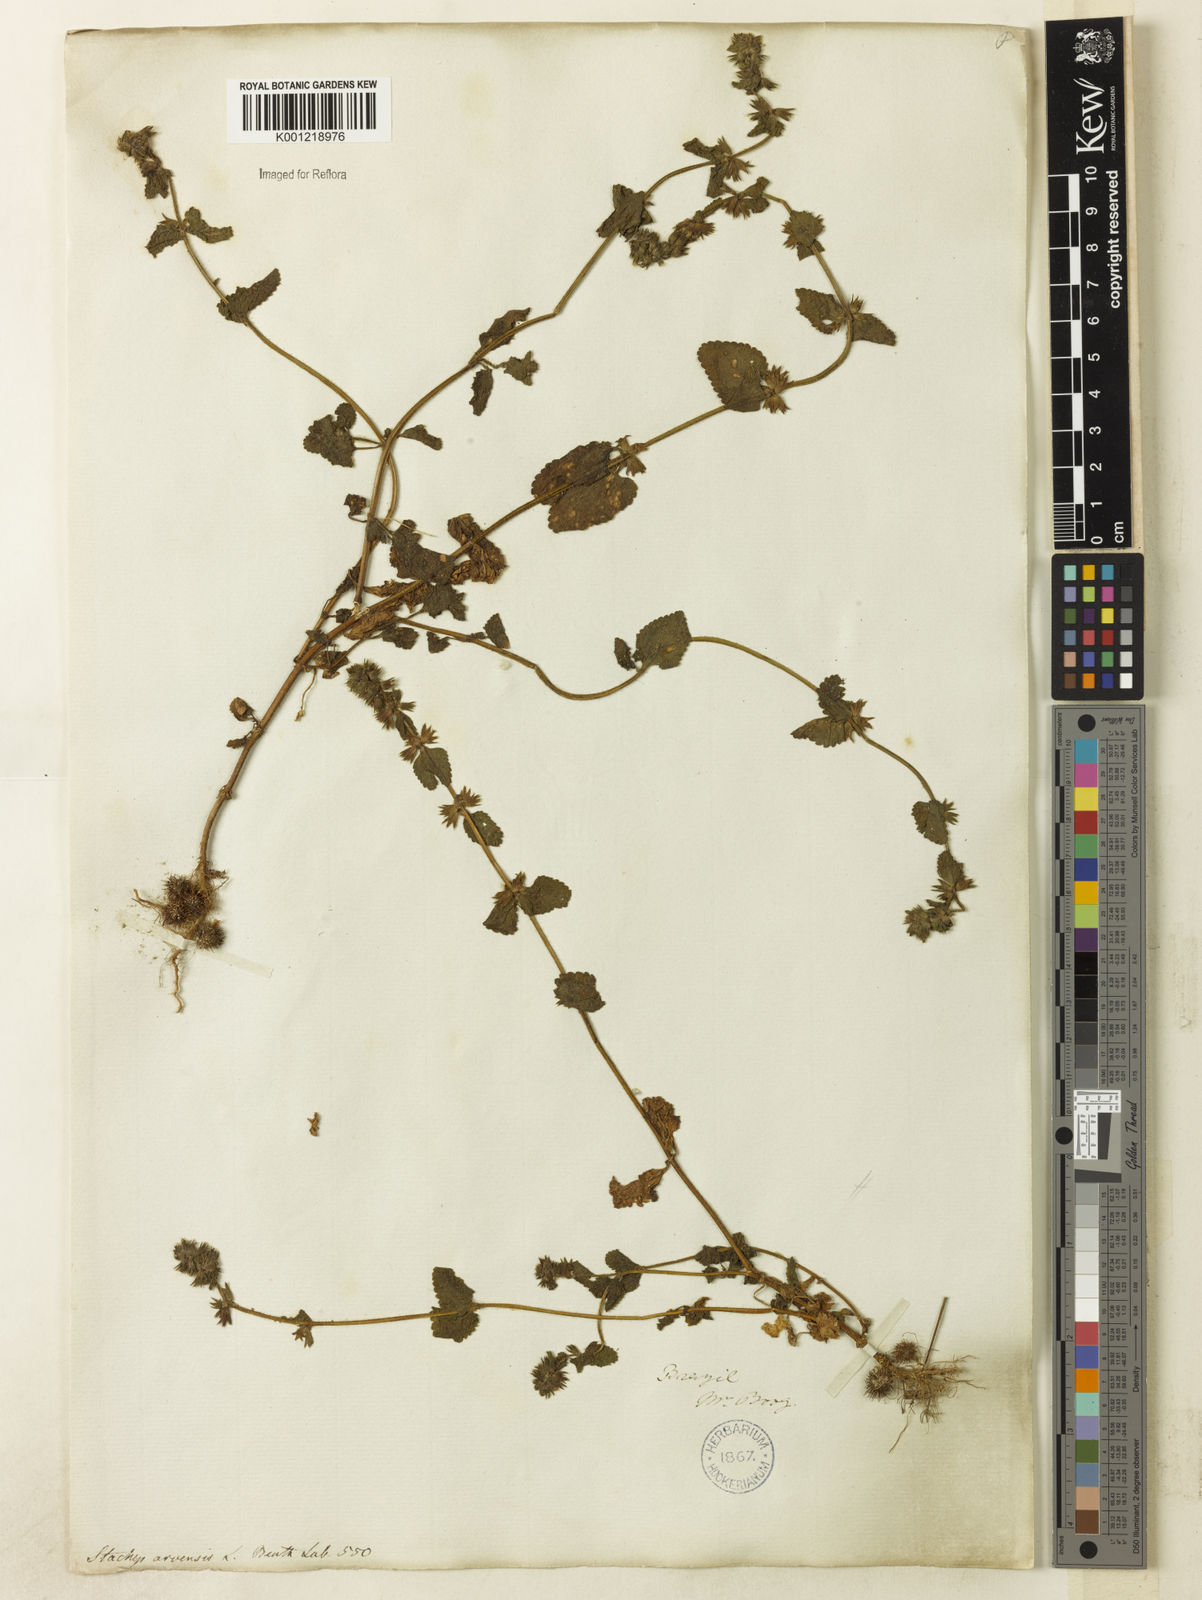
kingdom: Plantae
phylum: Tracheophyta
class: Magnoliopsida
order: Lamiales
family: Lamiaceae
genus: Stachys
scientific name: Stachys arvensis
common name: Field woundwort
